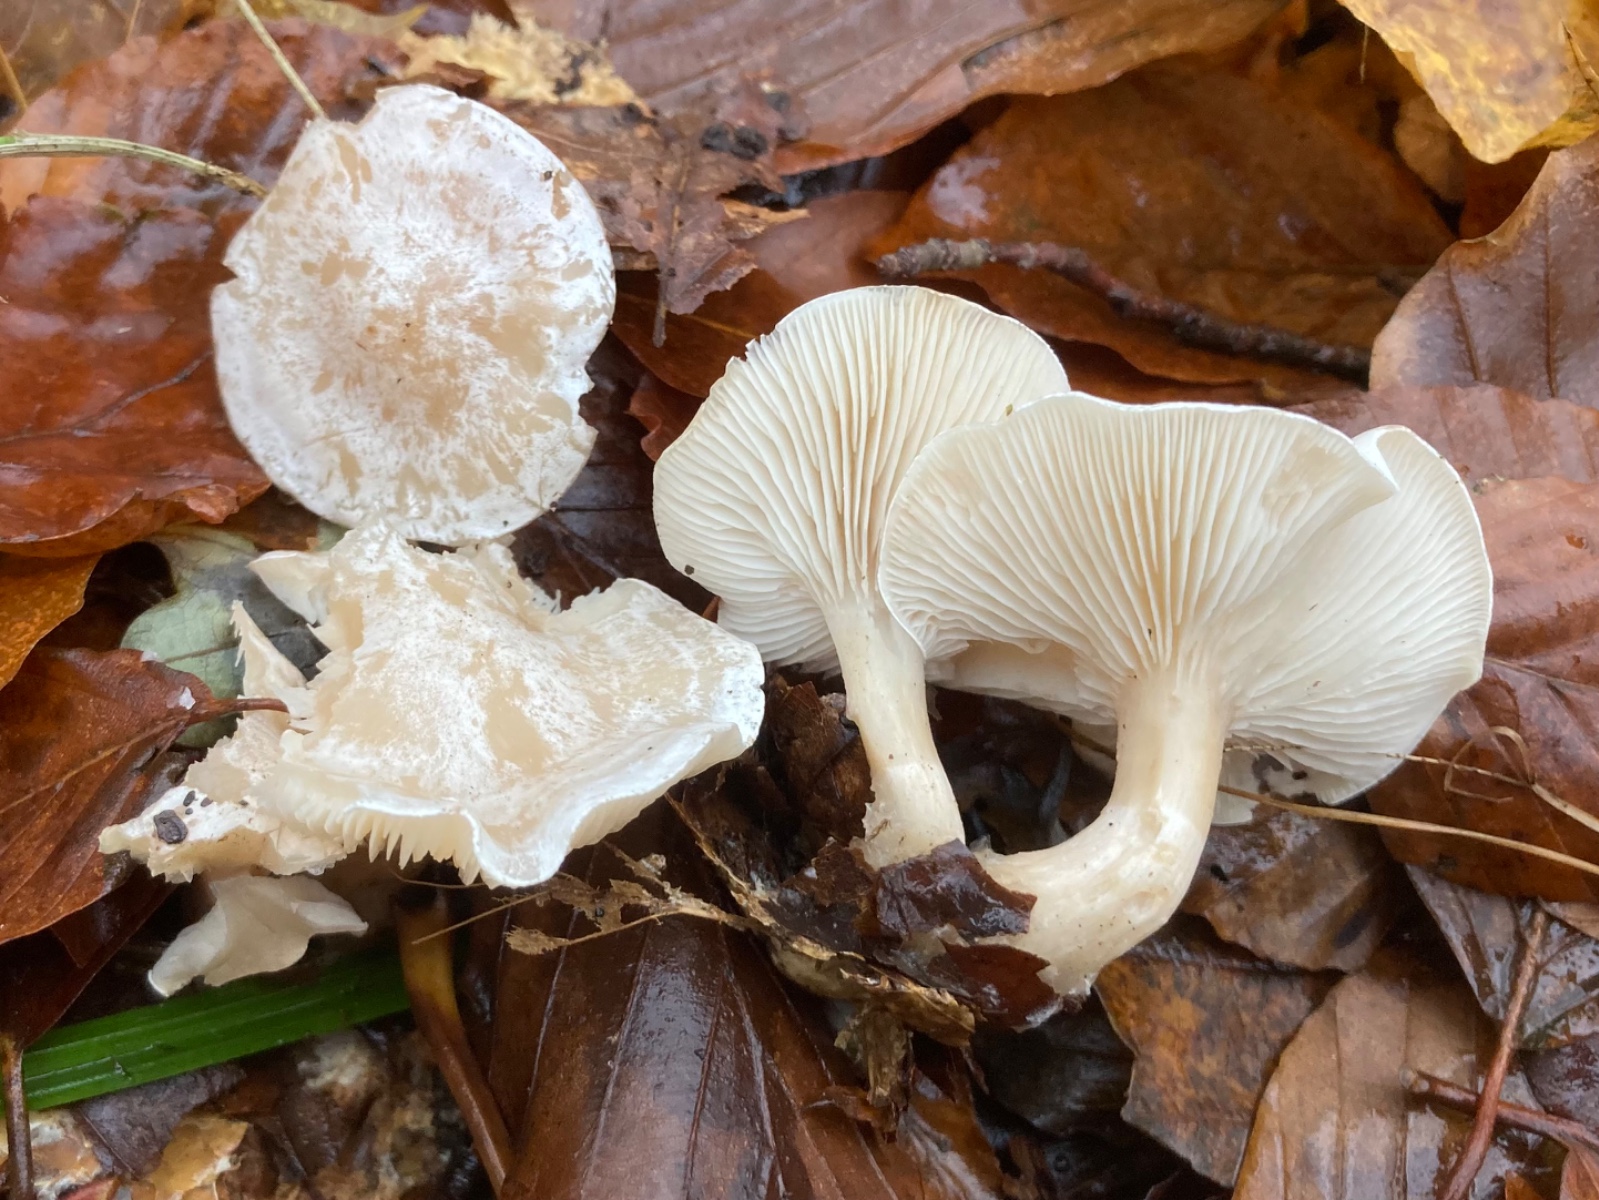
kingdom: Fungi
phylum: Basidiomycota
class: Agaricomycetes
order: Agaricales
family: Tricholomataceae
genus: Clitocybe
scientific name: Clitocybe phyllophila
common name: løv-tragthat
